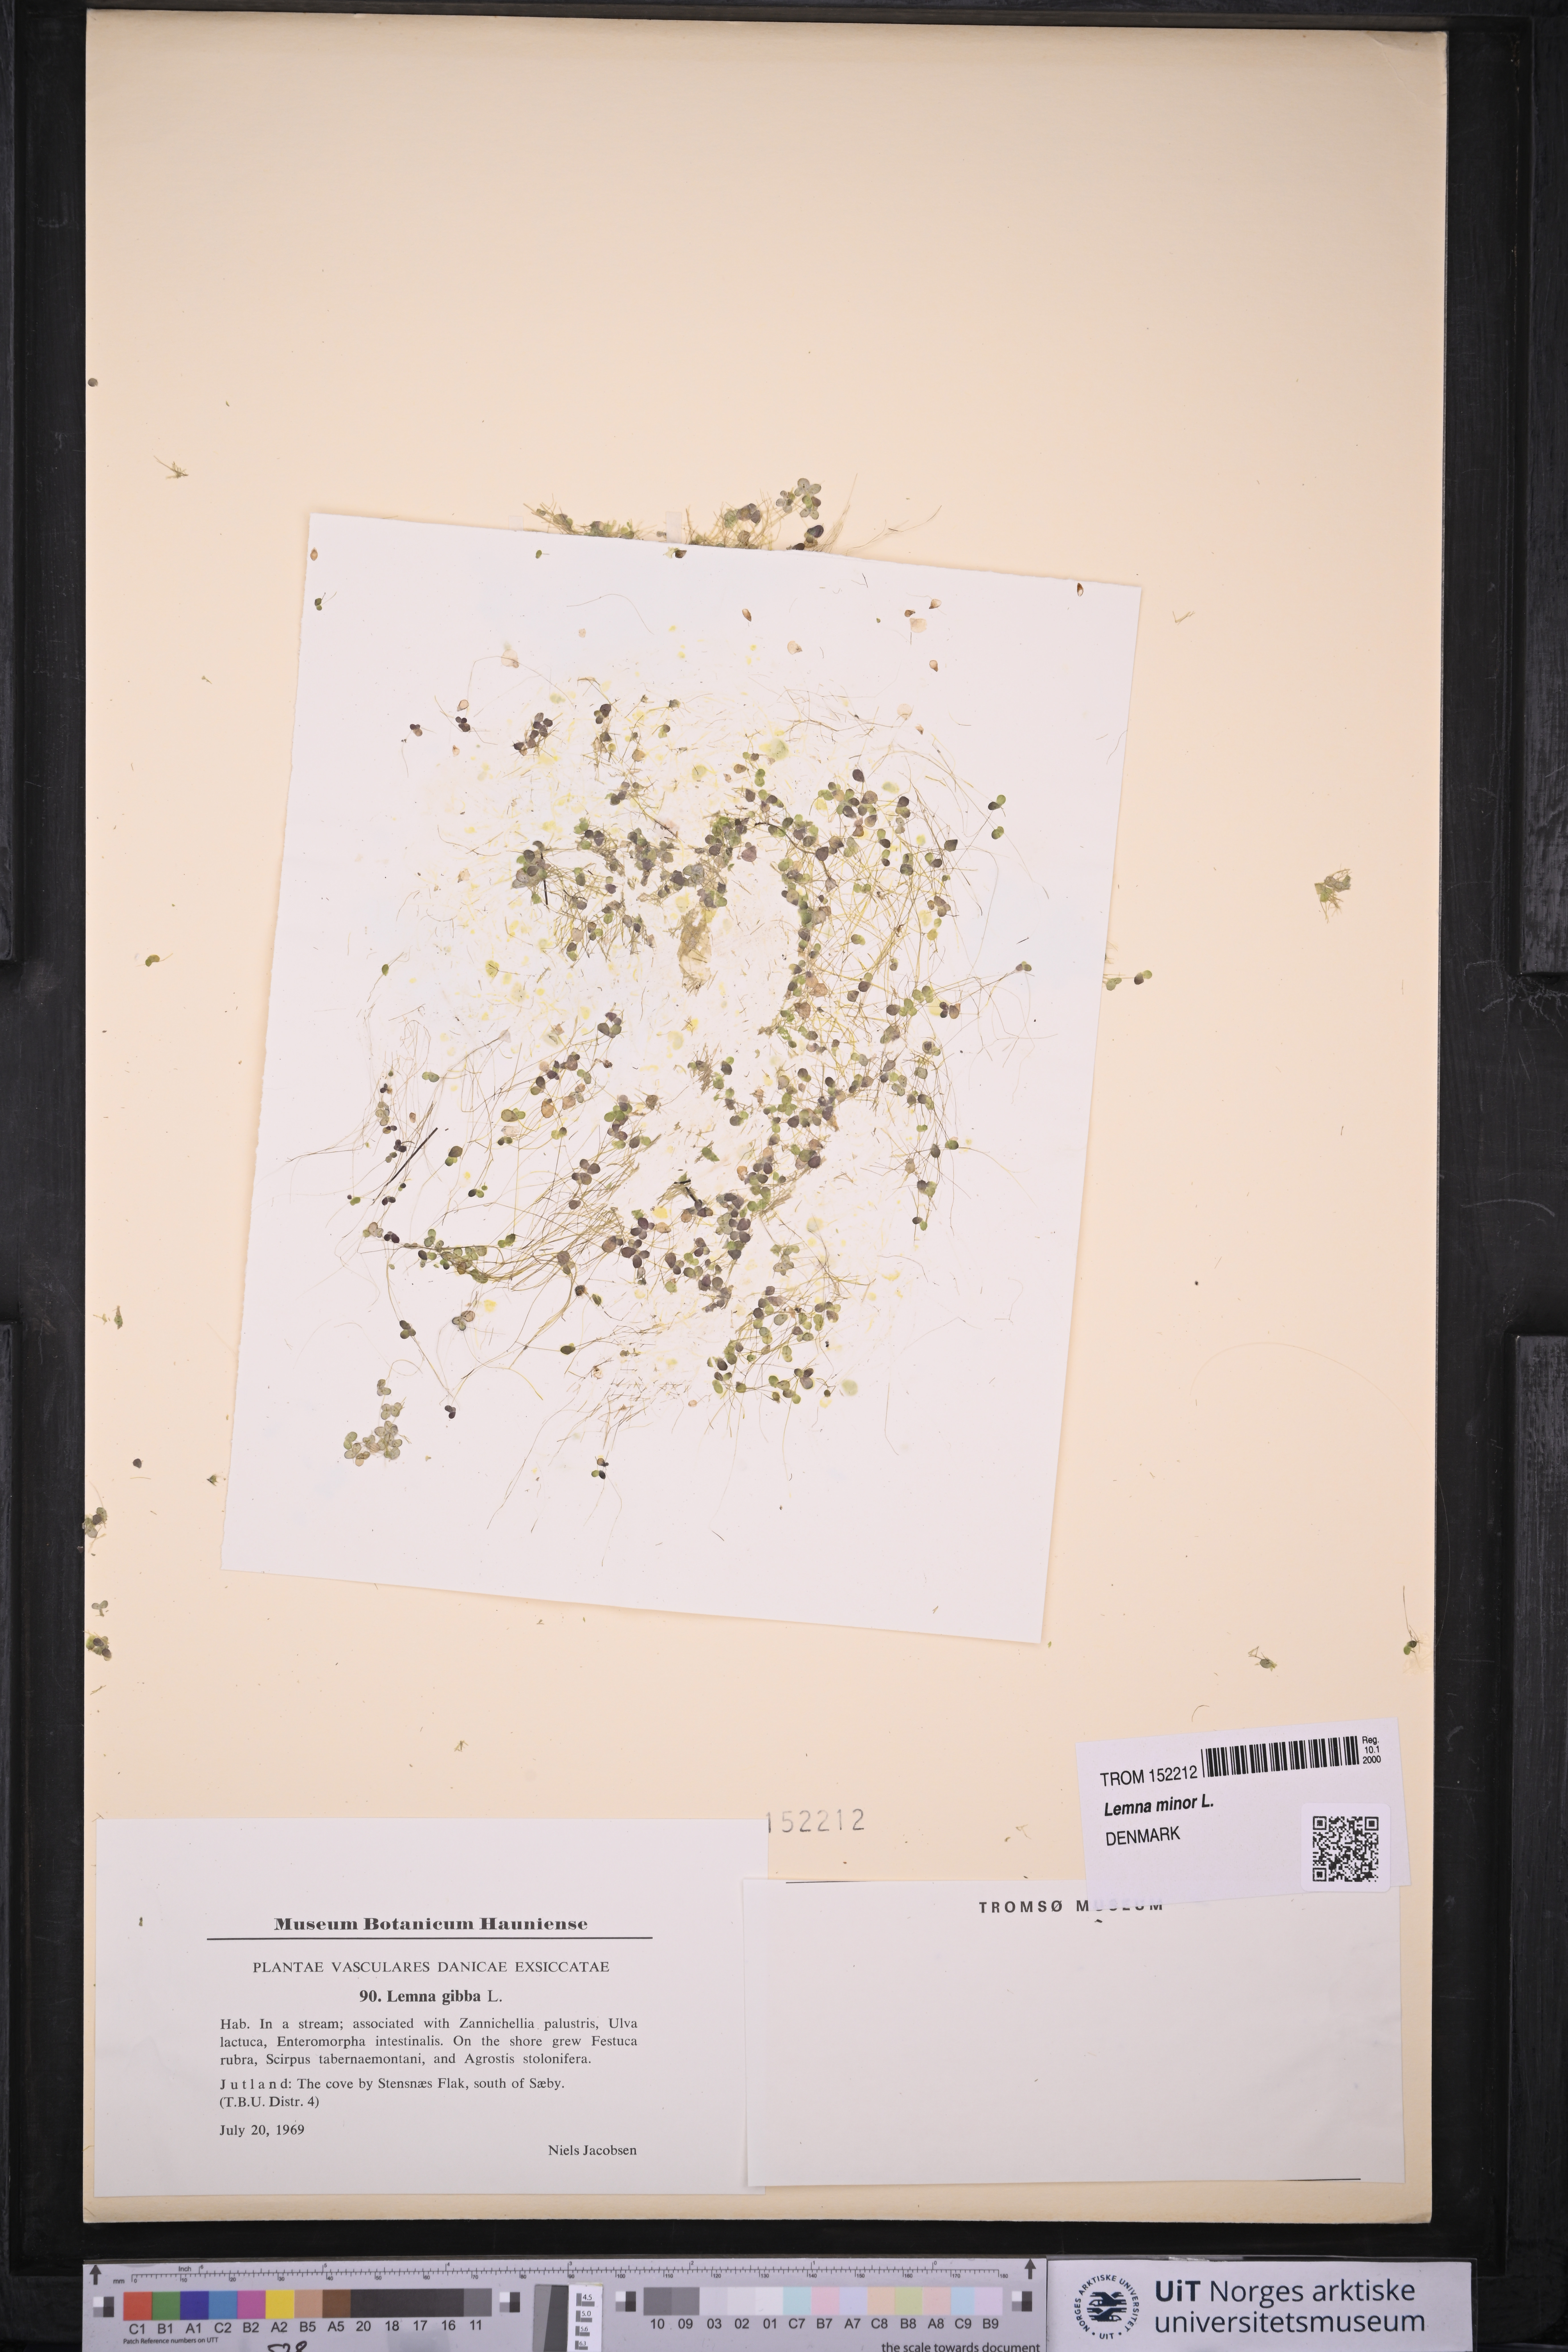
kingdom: Plantae
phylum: Tracheophyta
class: Liliopsida
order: Alismatales
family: Araceae
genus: Lemna
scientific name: Lemna minor
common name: Common duckweed
